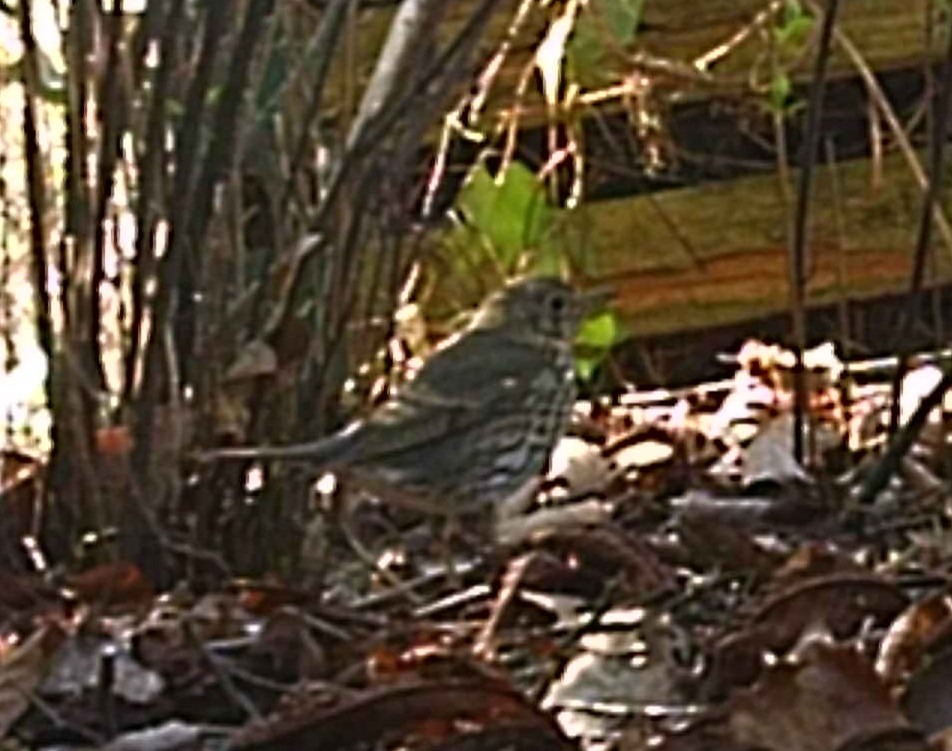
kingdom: Animalia
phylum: Chordata
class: Aves
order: Passeriformes
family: Turdidae
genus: Turdus
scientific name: Turdus philomelos
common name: Sangdrossel
